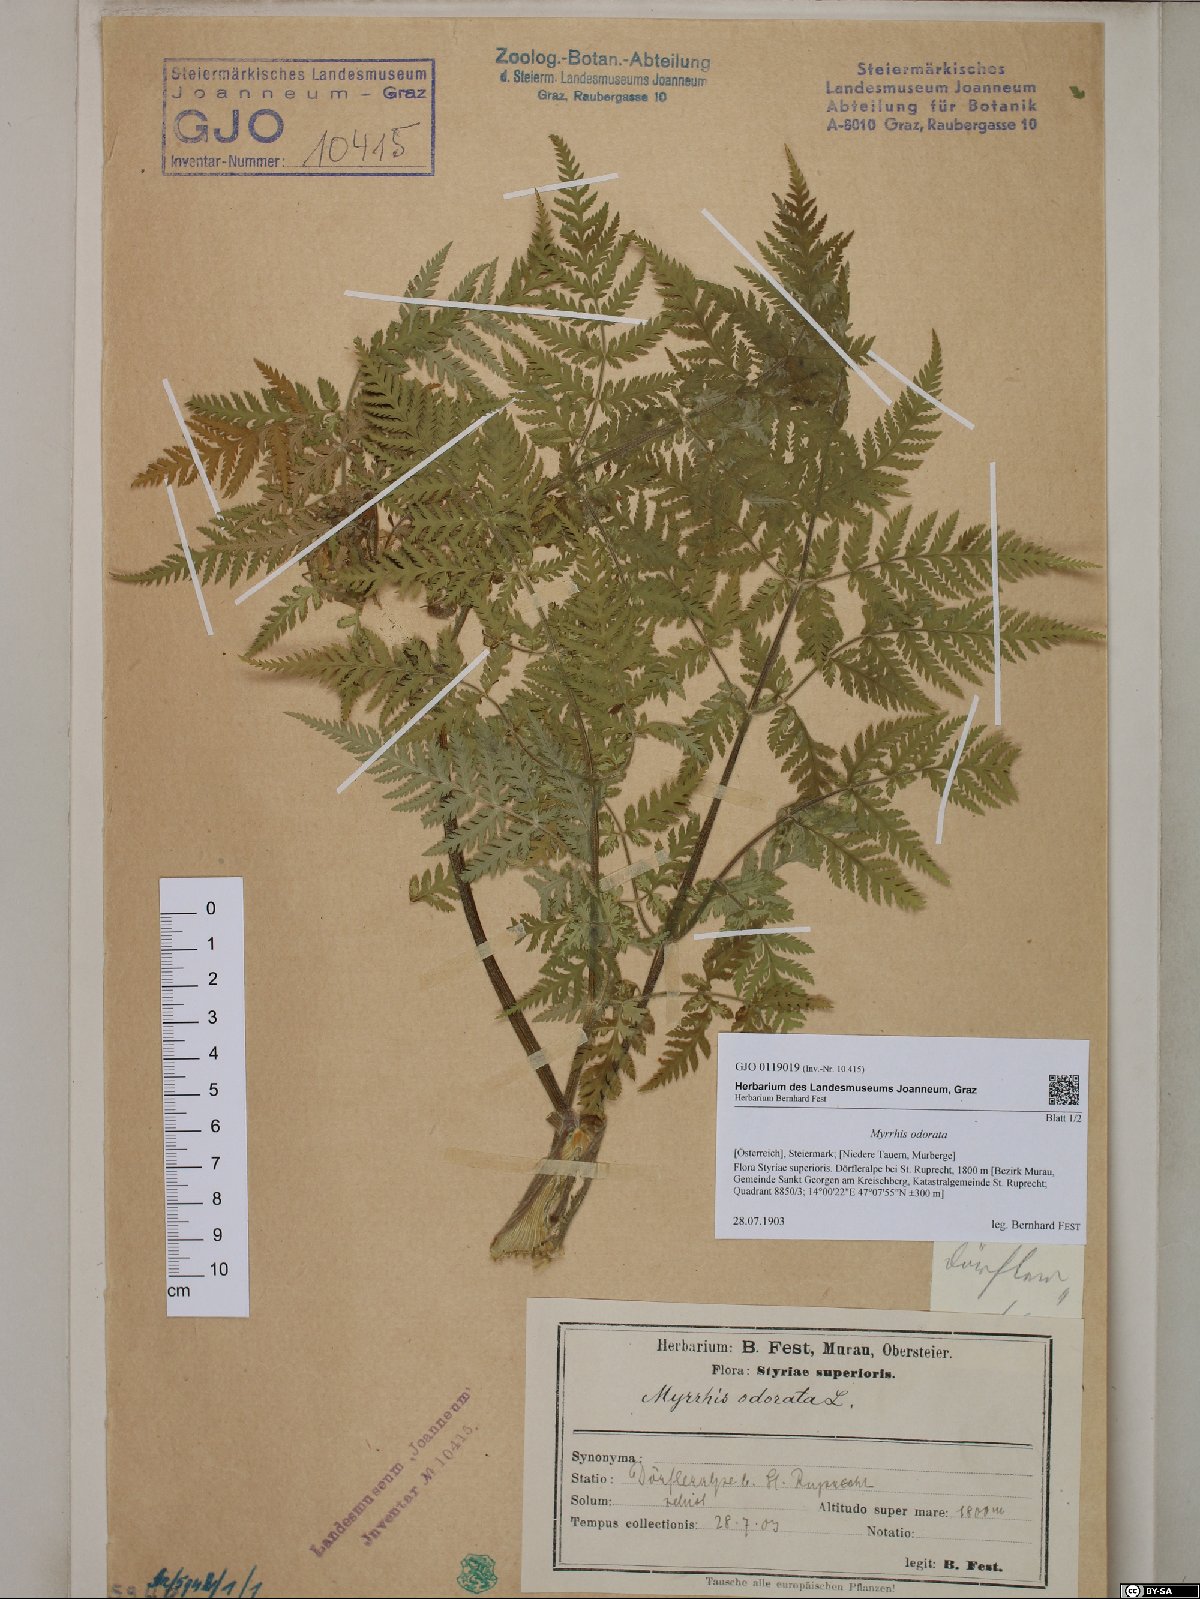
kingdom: Plantae
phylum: Tracheophyta
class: Magnoliopsida
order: Apiales
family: Apiaceae
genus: Myrrhis
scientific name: Myrrhis odorata
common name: Sweet cicely
